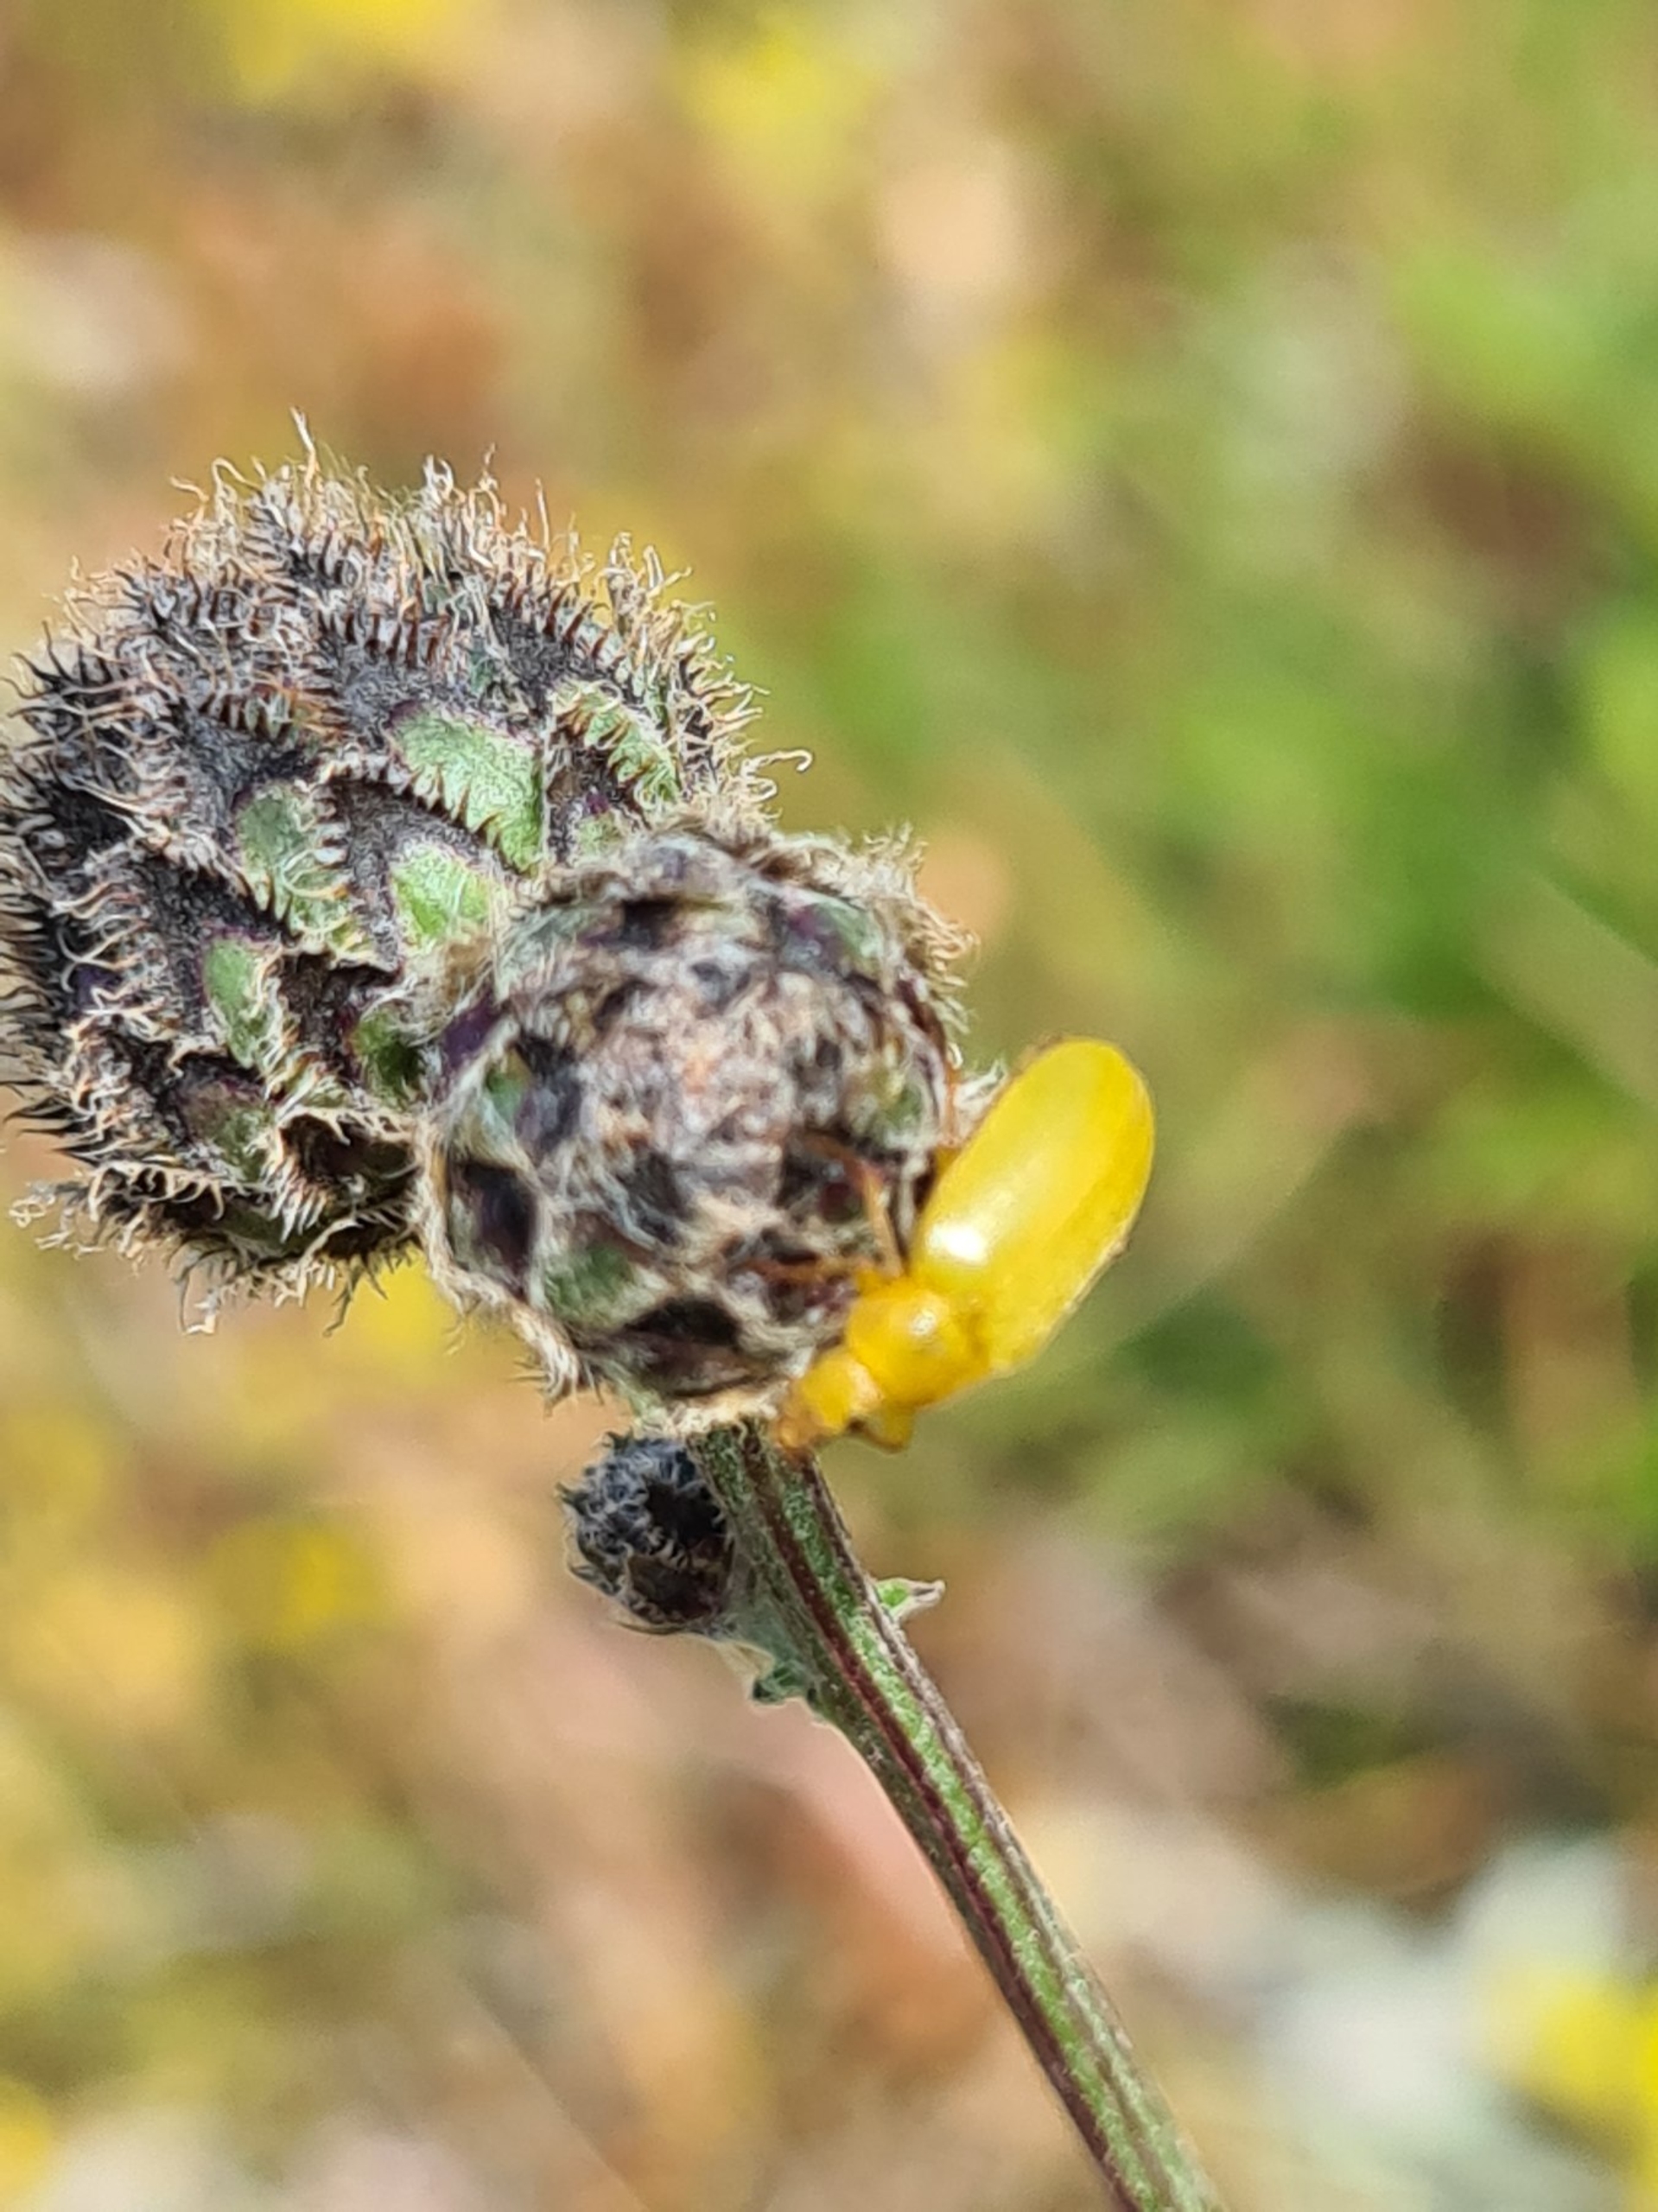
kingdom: Animalia
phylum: Arthropoda
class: Insecta
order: Coleoptera
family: Tenebrionidae
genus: Cteniopus
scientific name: Cteniopus sulphureus
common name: Svovlgul skyggebille
